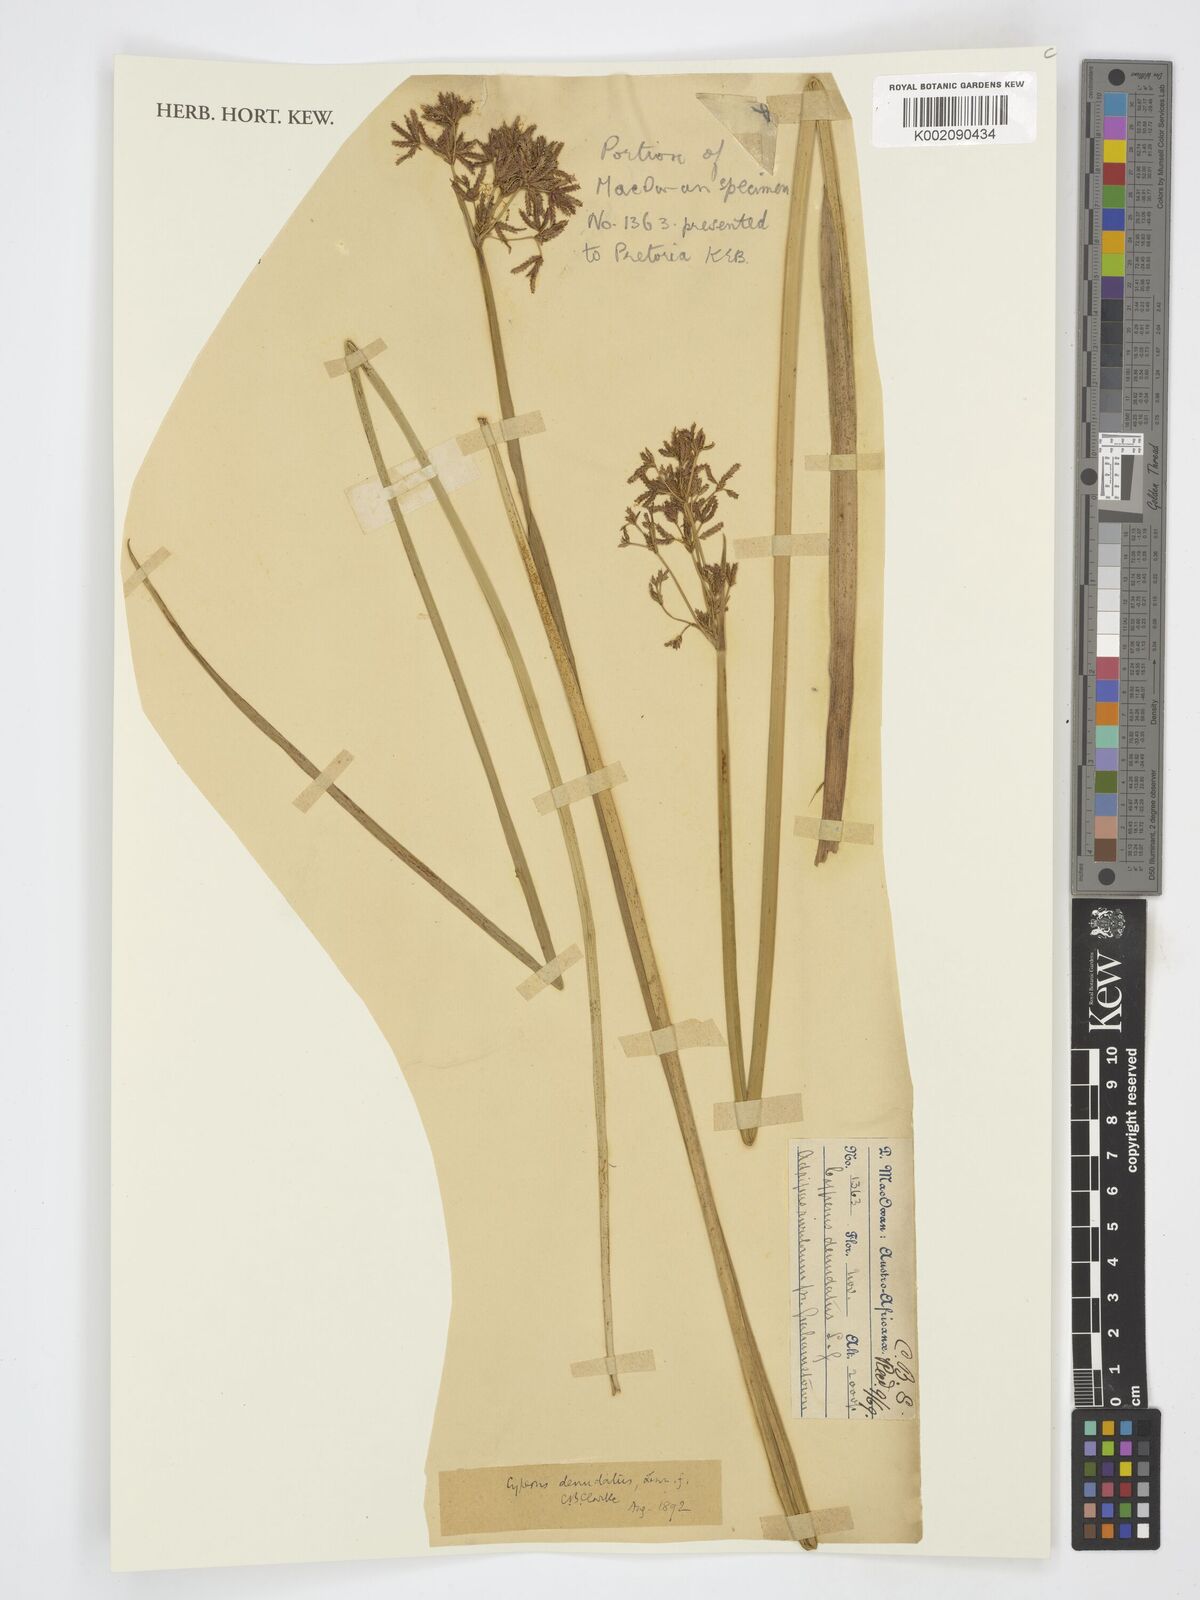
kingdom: Plantae
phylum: Tracheophyta
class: Liliopsida
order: Poales
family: Cyperaceae
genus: Cyperus
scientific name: Cyperus denudatus
